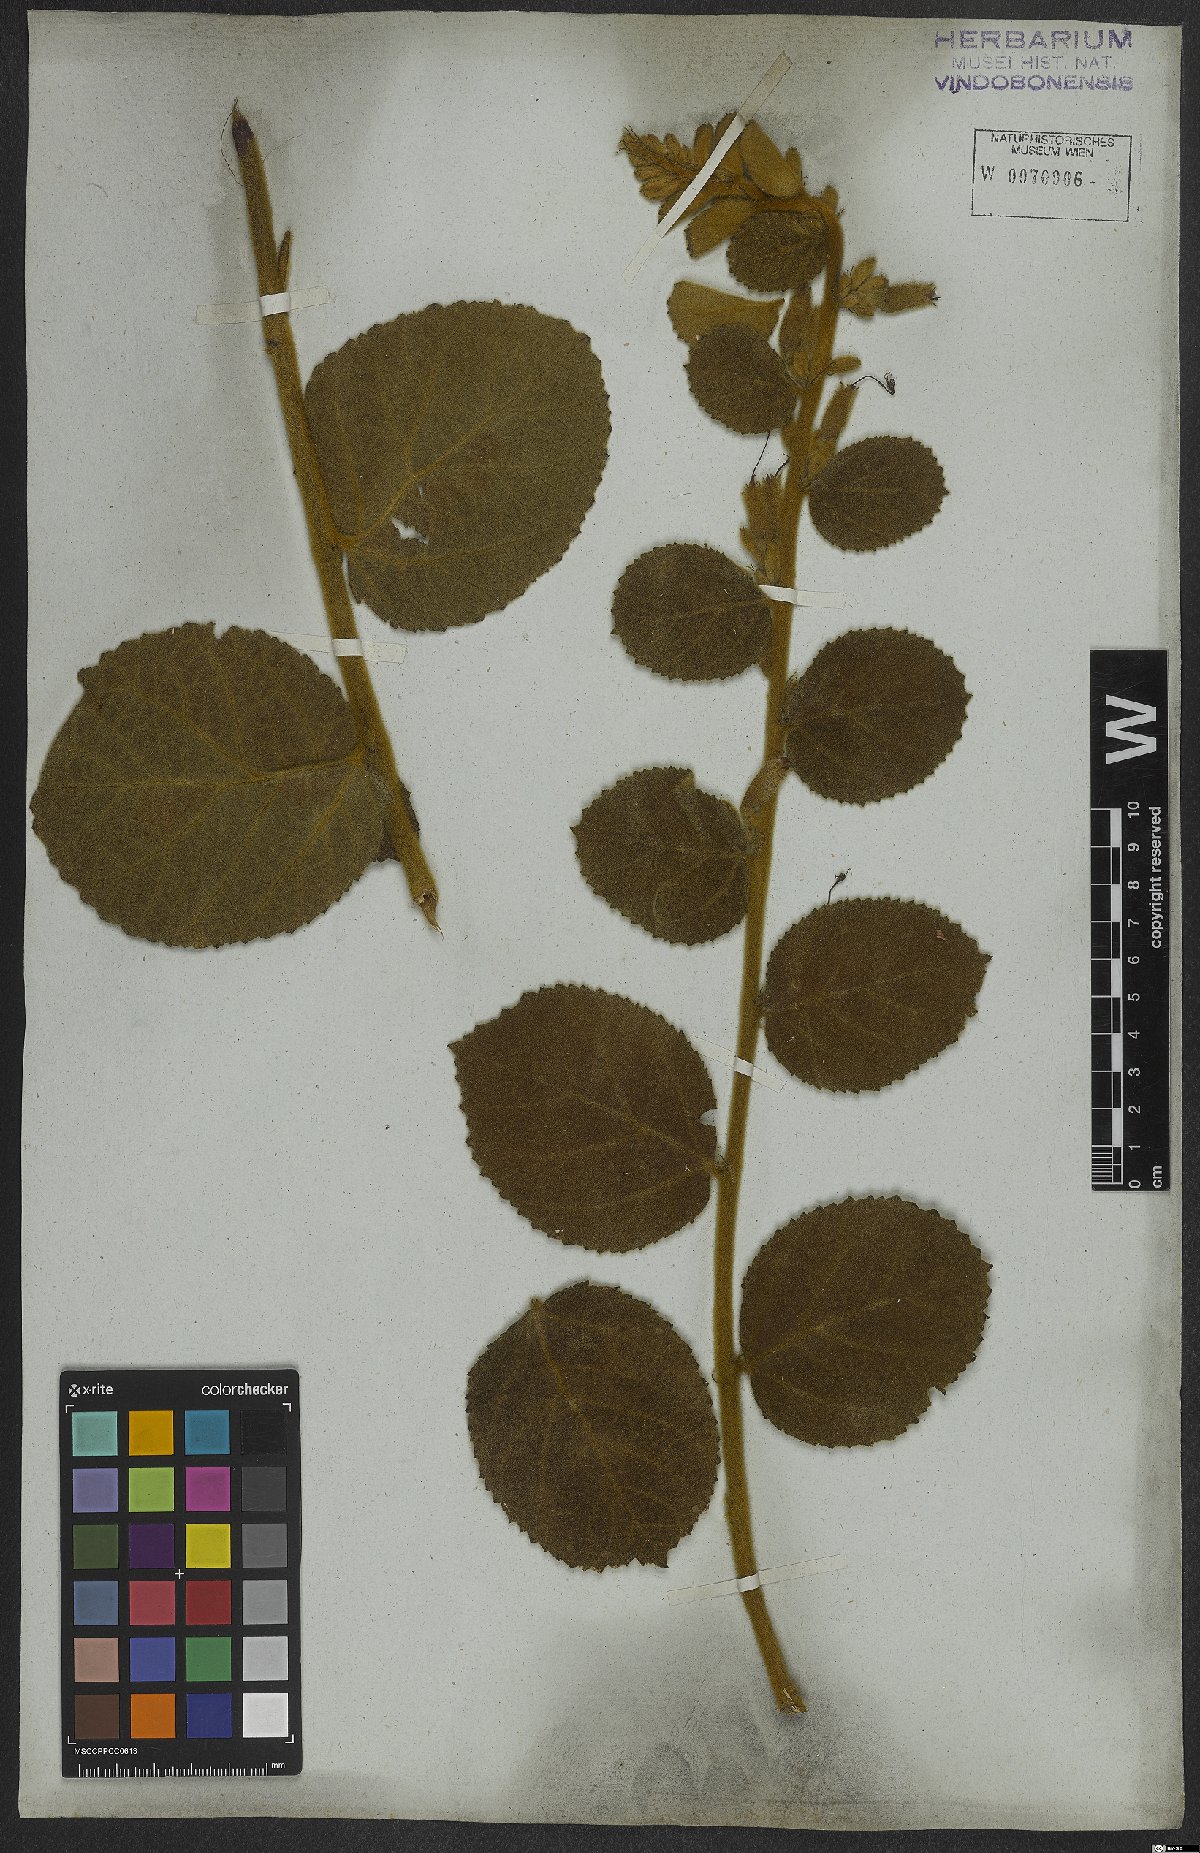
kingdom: Plantae
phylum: Tracheophyta
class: Magnoliopsida
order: Malvales
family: Malvaceae
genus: Helicteres
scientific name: Helicteres sacarolha
